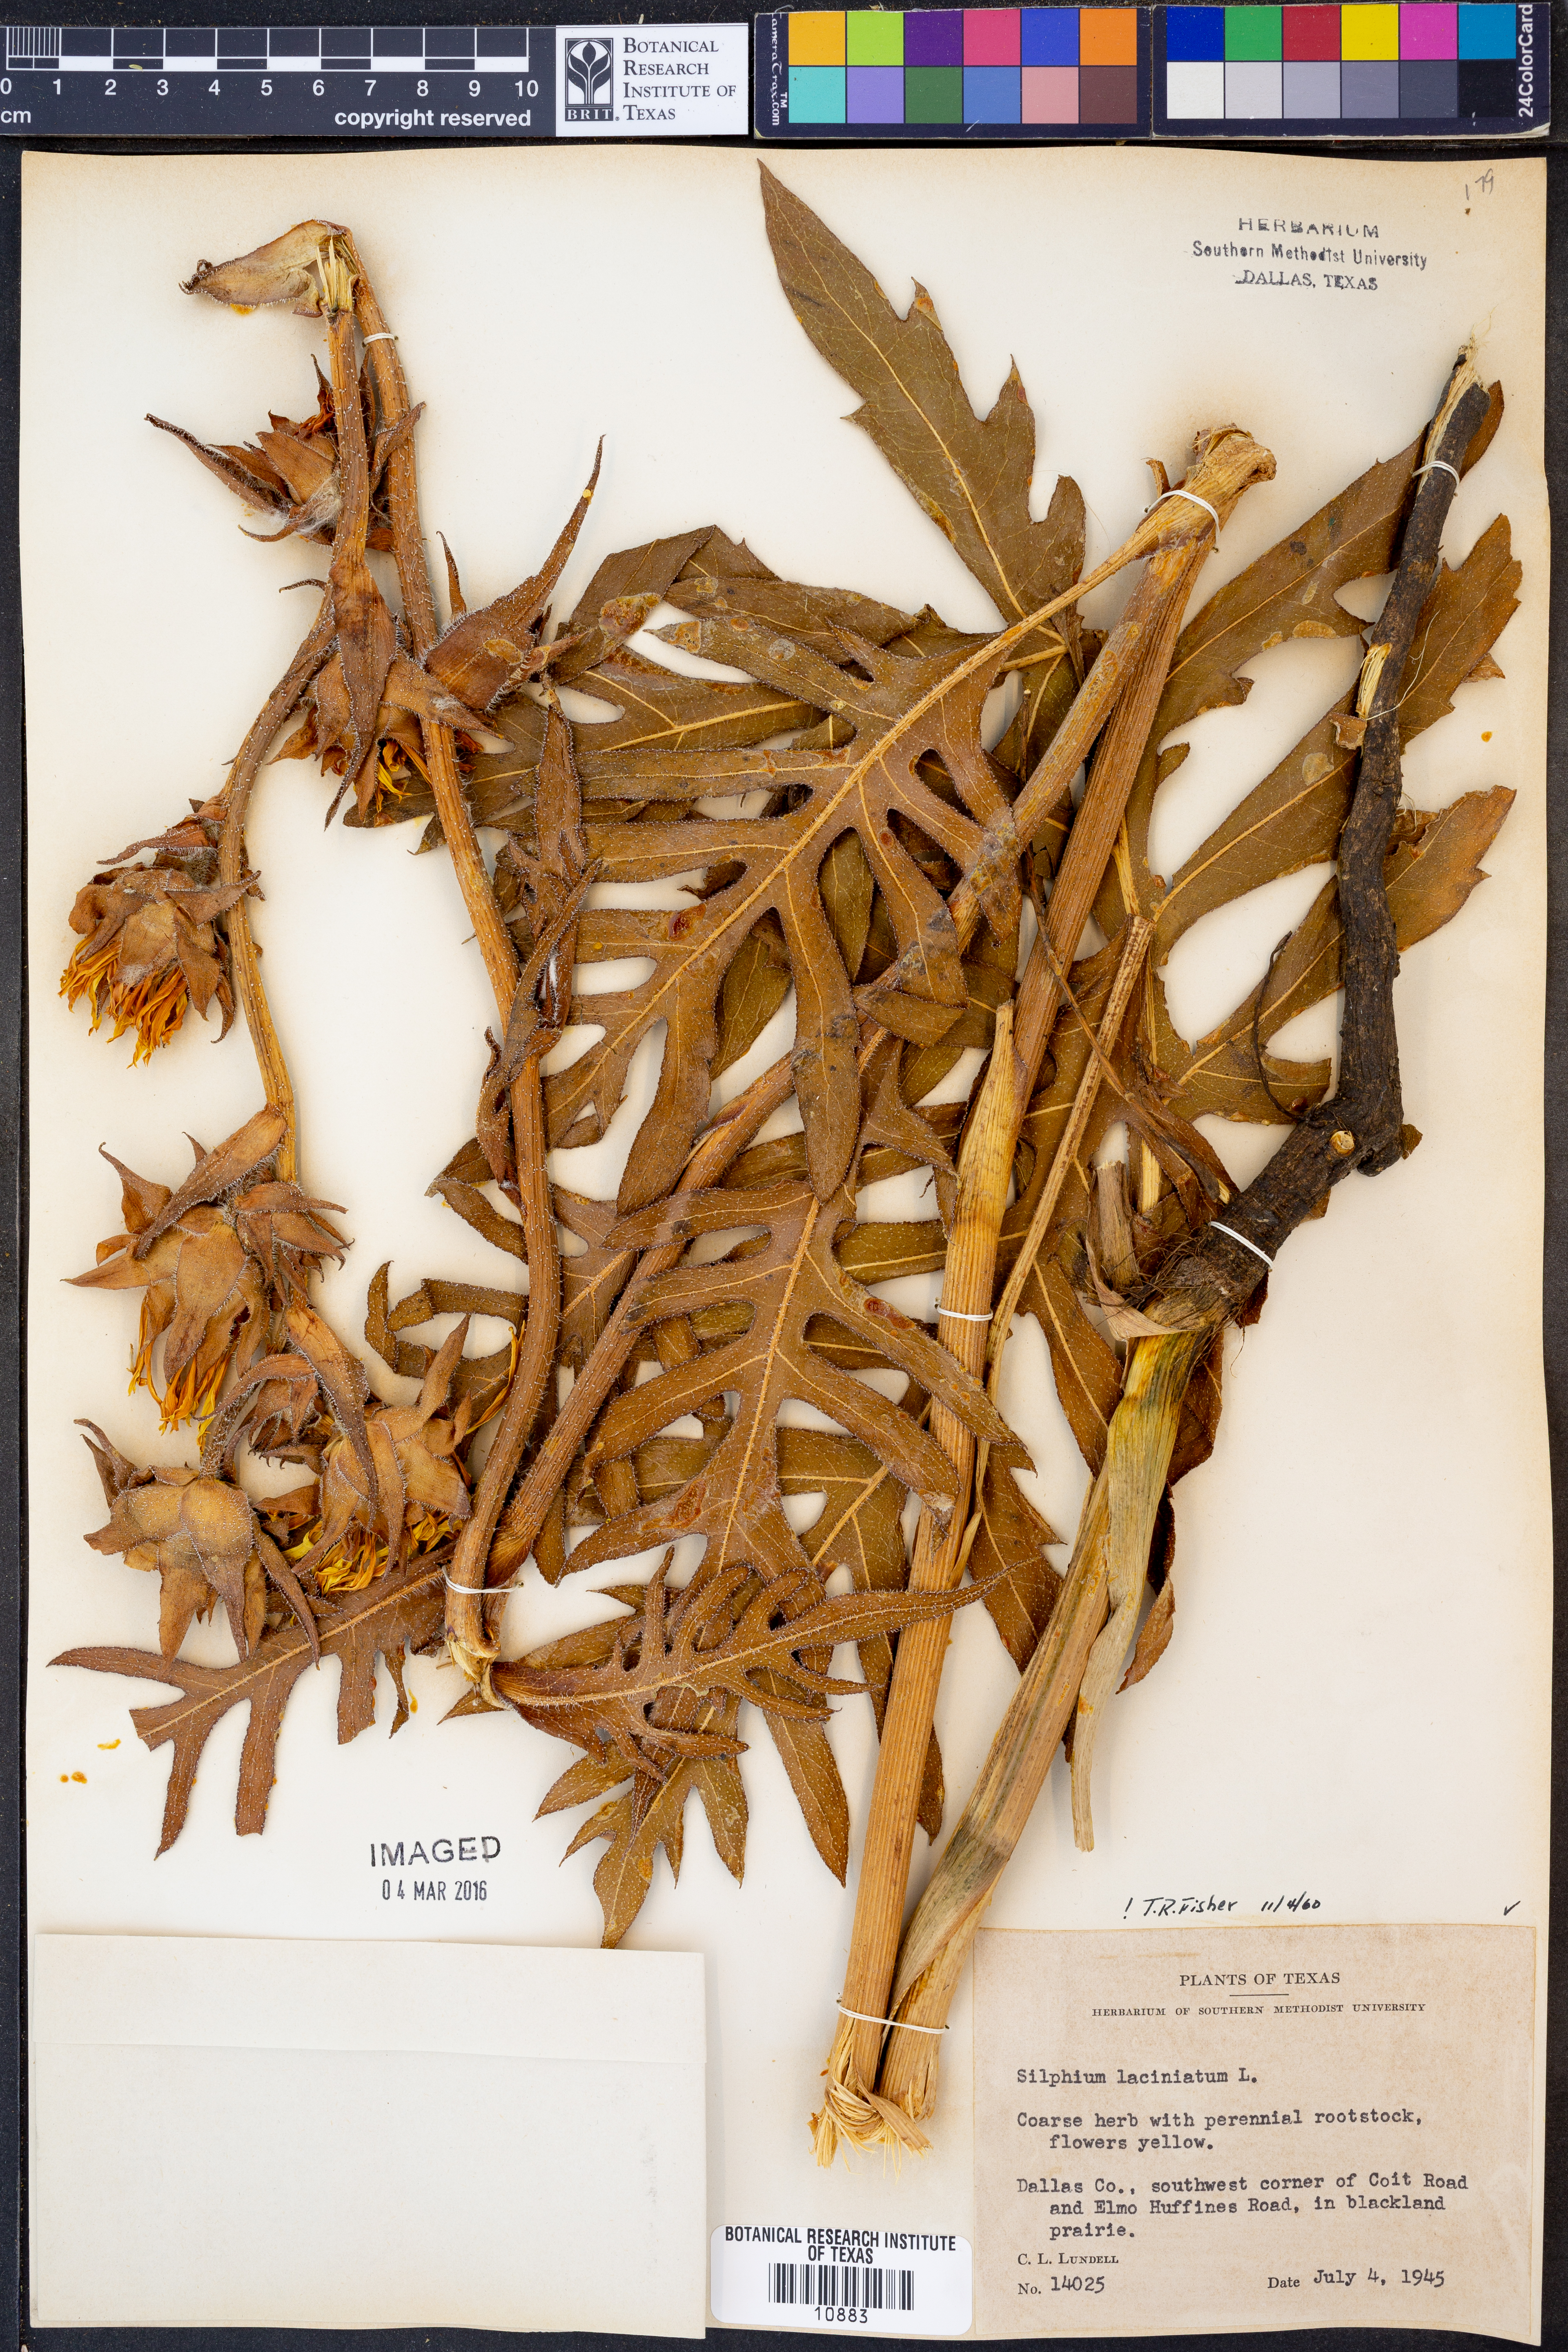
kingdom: Plantae
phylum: Tracheophyta
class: Magnoliopsida
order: Asterales
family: Asteraceae
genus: Silphium
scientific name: Silphium laciniatum
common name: Polarplant
